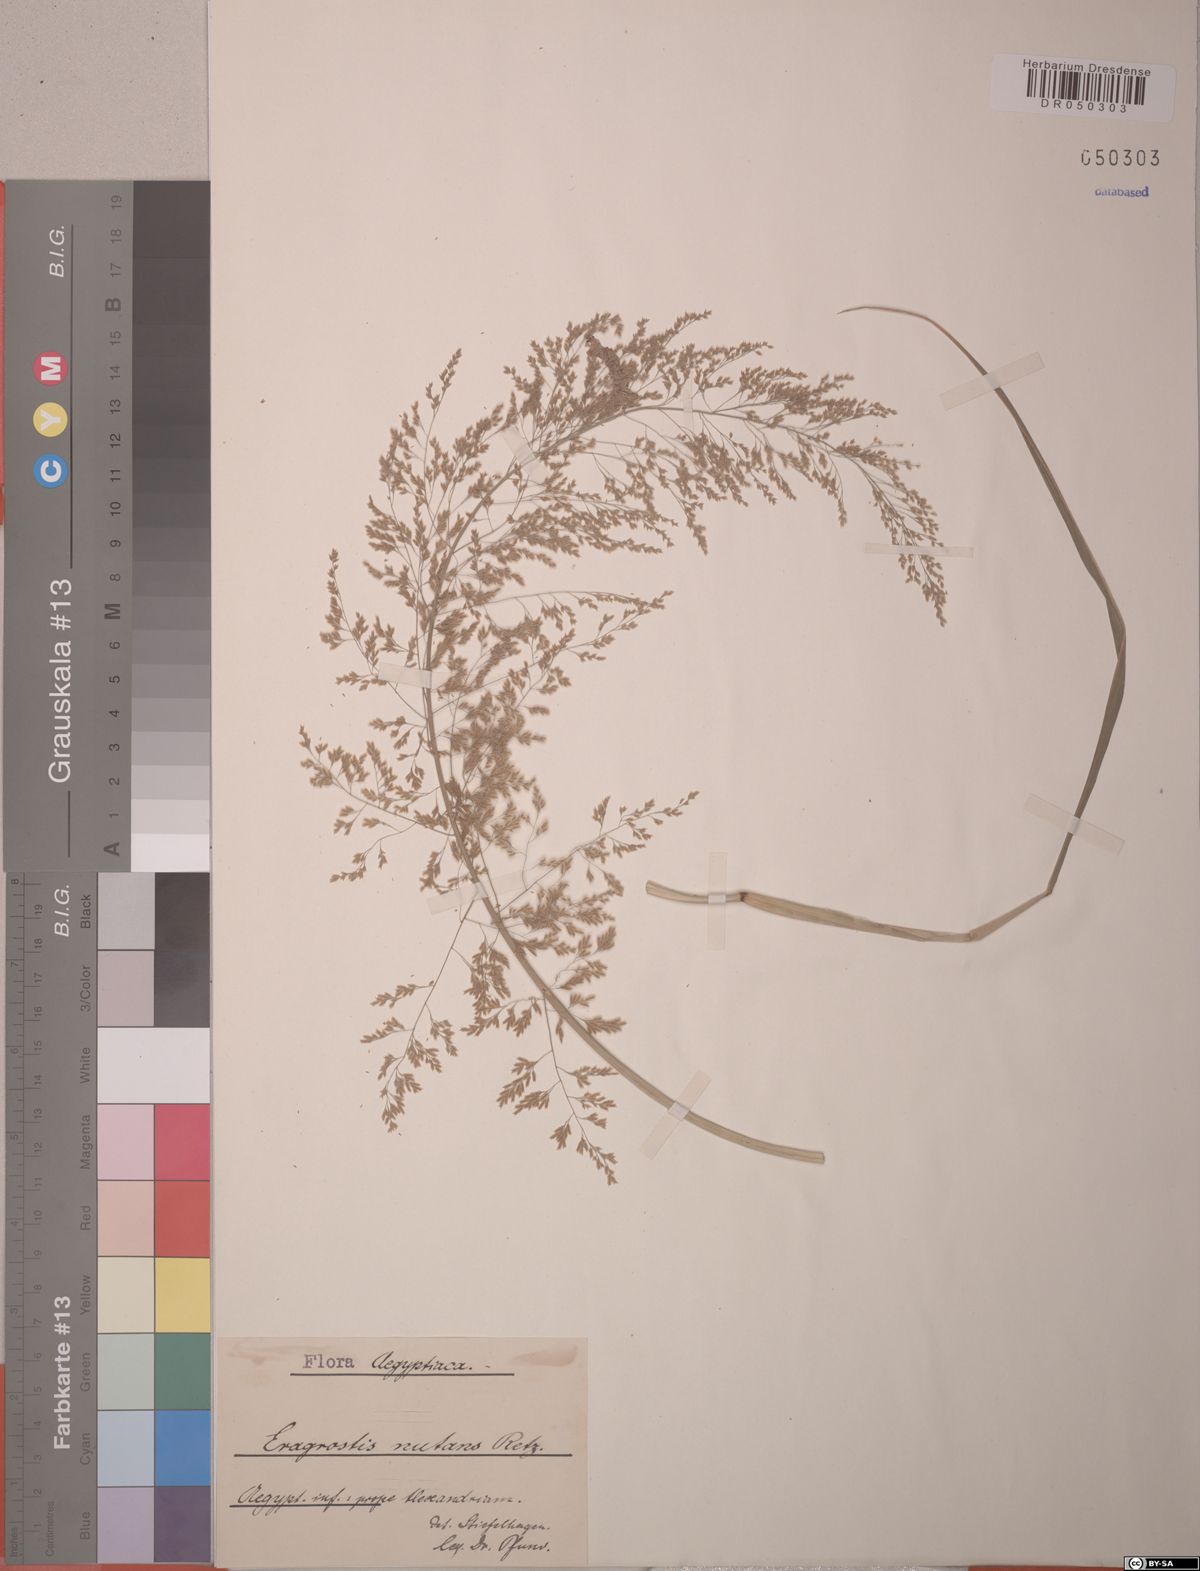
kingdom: Plantae
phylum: Tracheophyta
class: Liliopsida
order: Poales
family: Poaceae
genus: Eragrostis
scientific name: Eragrostis nutans
